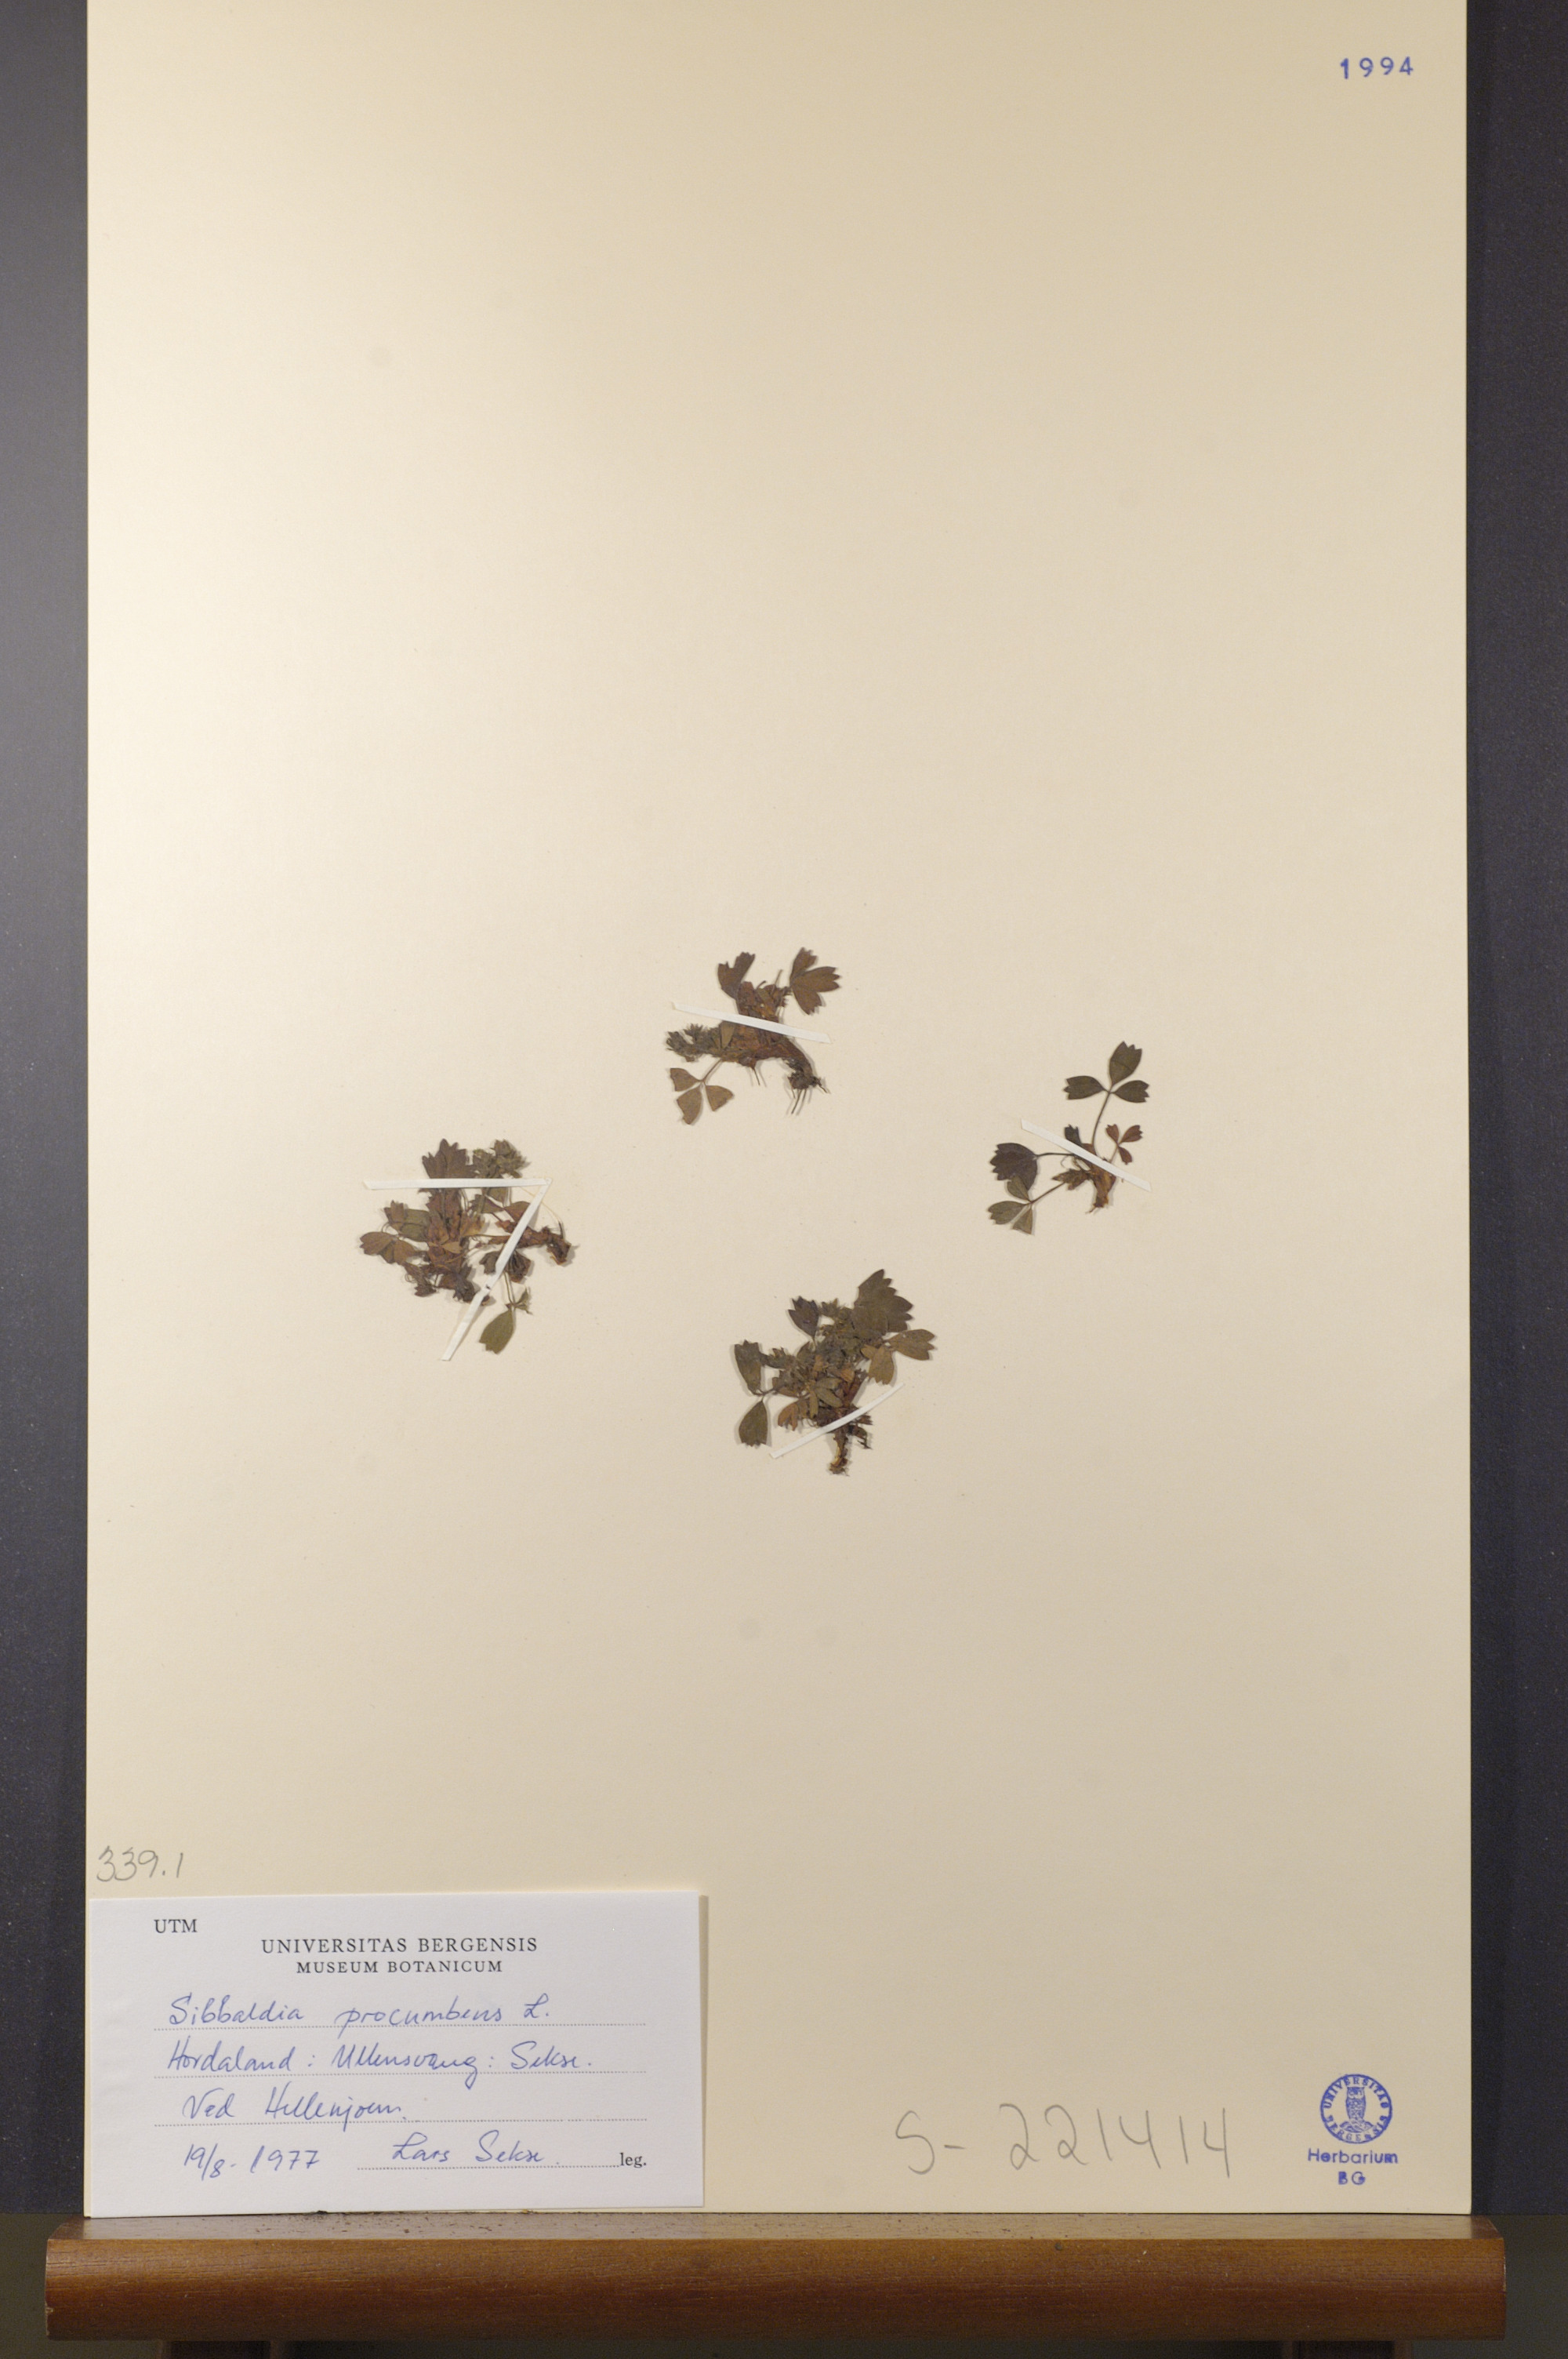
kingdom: Plantae
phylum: Tracheophyta
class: Magnoliopsida
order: Rosales
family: Rosaceae
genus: Sibbaldia
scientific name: Sibbaldia procumbens
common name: Creeping sibbaldia
